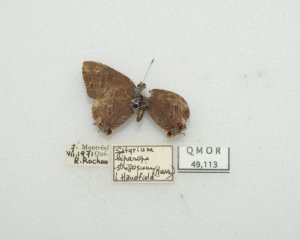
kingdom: Animalia
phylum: Arthropoda
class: Insecta
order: Lepidoptera
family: Lycaenidae
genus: Satyrium
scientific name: Satyrium liparops
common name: Striped Hairstreak
